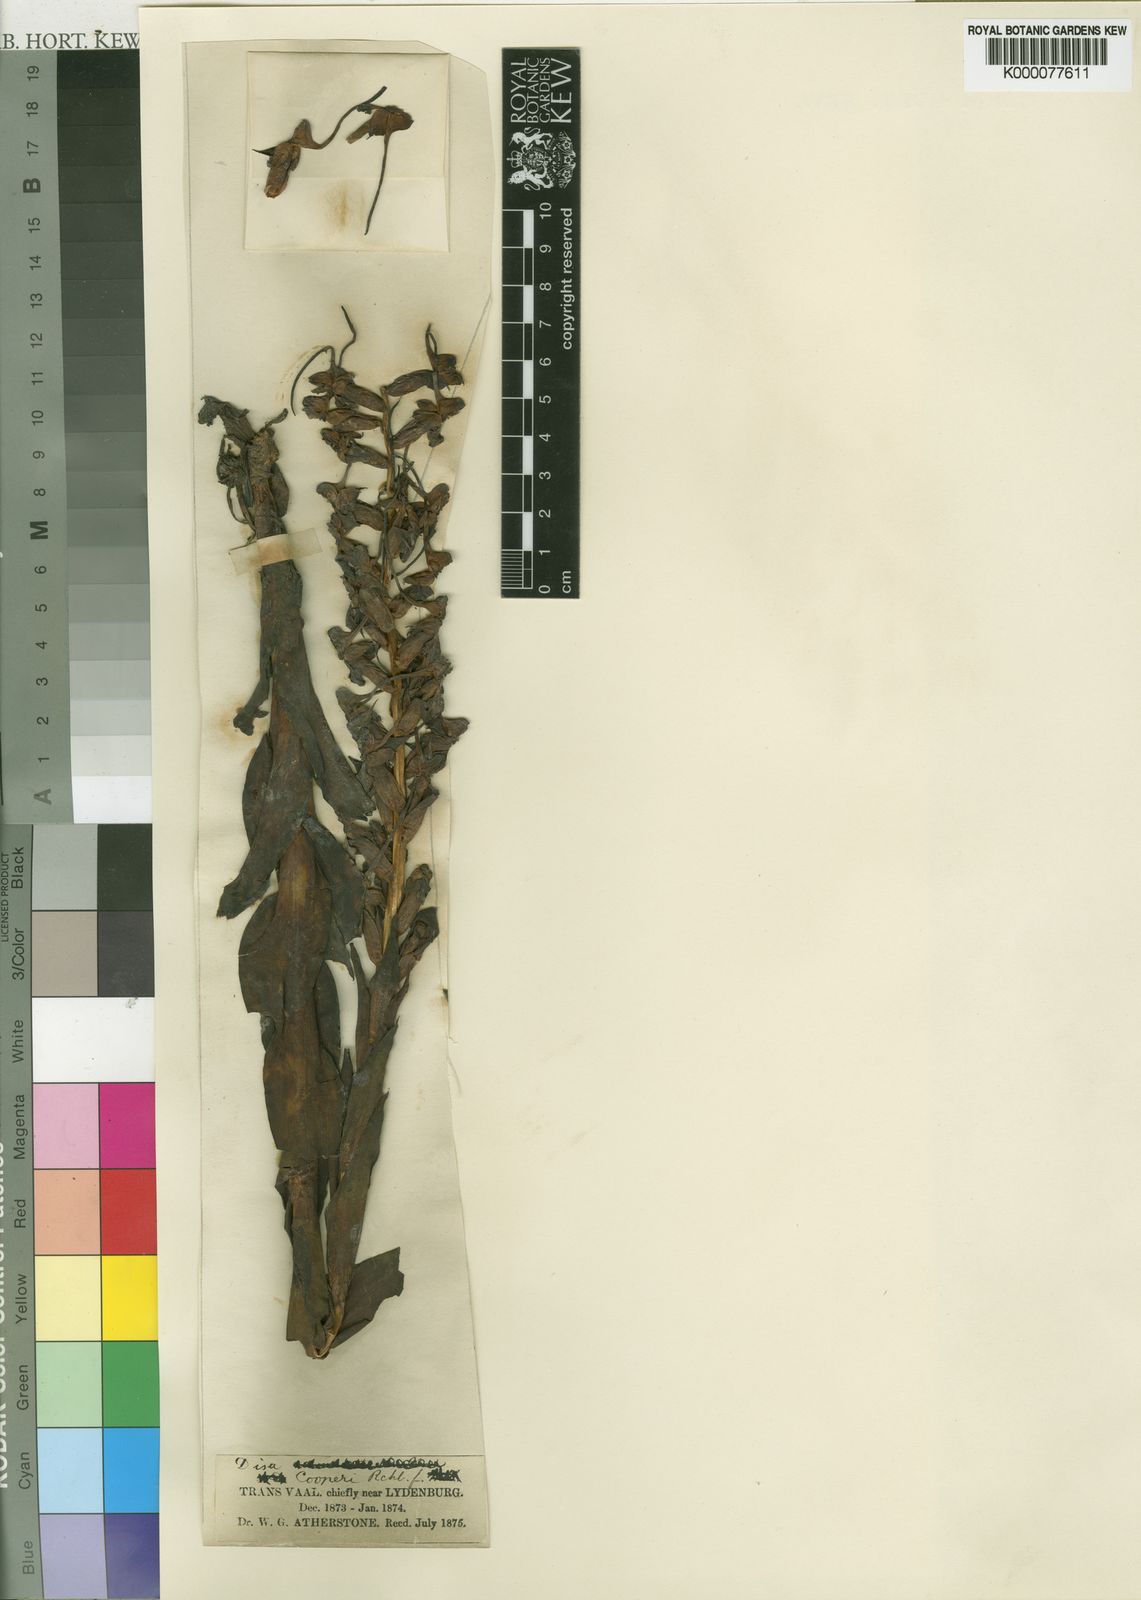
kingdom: Plantae
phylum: Tracheophyta
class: Liliopsida
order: Asparagales
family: Orchidaceae
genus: Disa
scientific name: Disa cooperi
